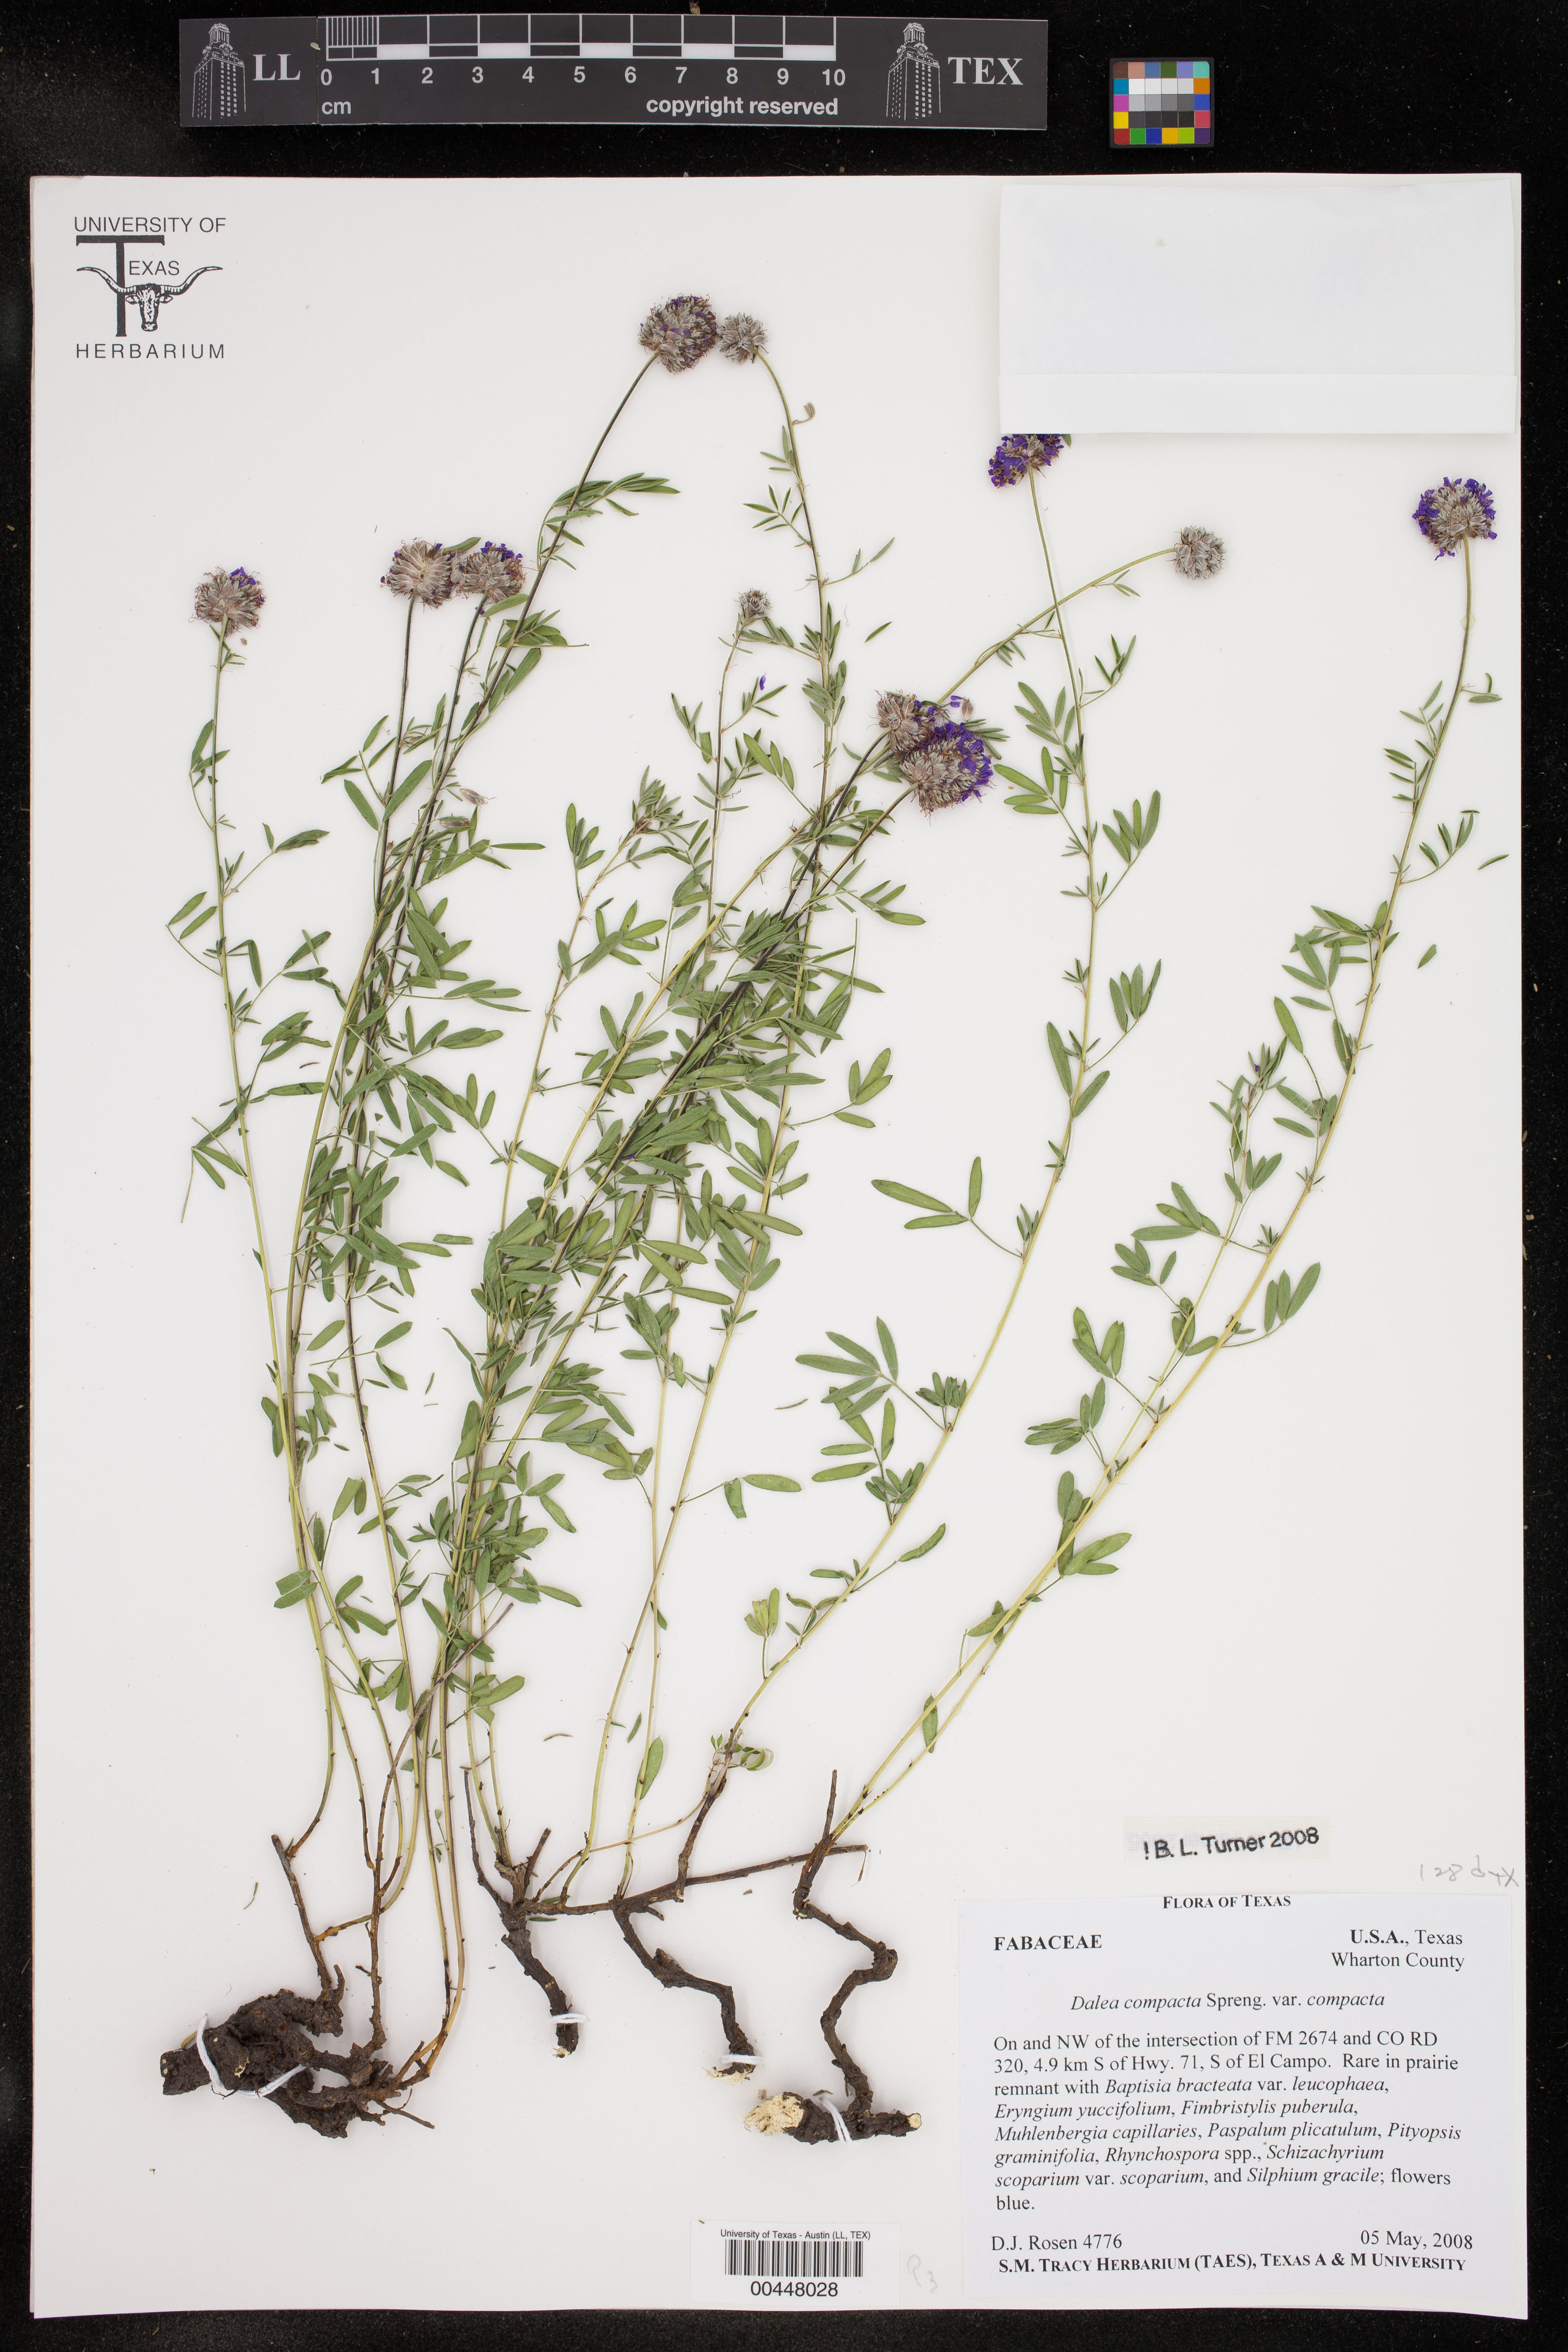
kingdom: Plantae
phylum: Tracheophyta
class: Magnoliopsida
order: Fabales
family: Fabaceae
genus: Dalea
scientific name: Dalea compacta
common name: Compact prairie-clover
